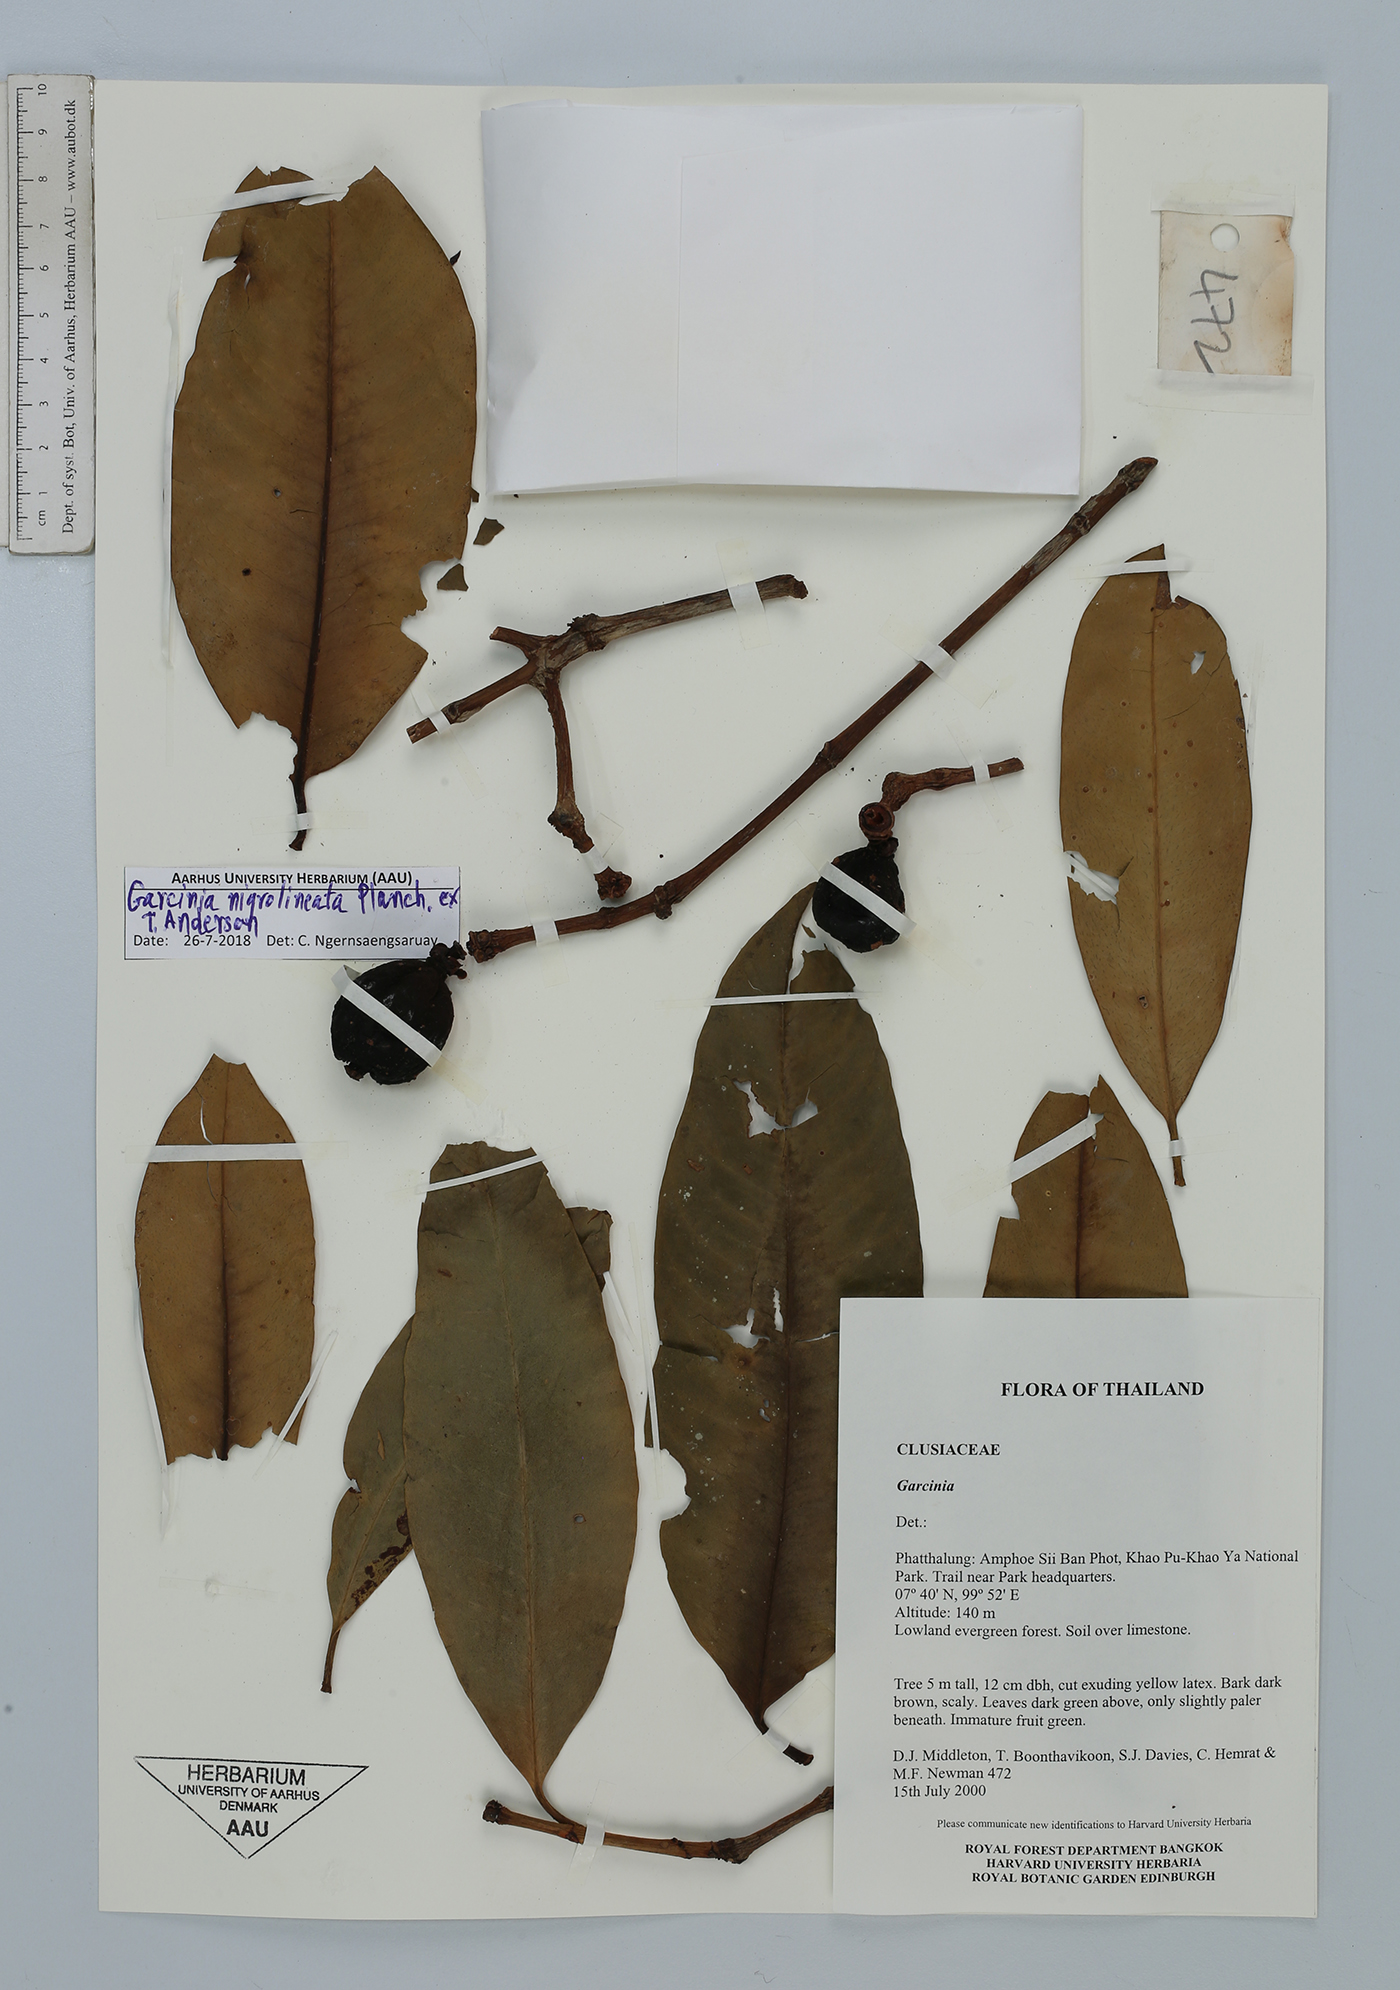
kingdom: Plantae
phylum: Tracheophyta
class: Magnoliopsida
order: Malpighiales
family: Clusiaceae
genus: Garcinia
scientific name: Garcinia nigrolineata
